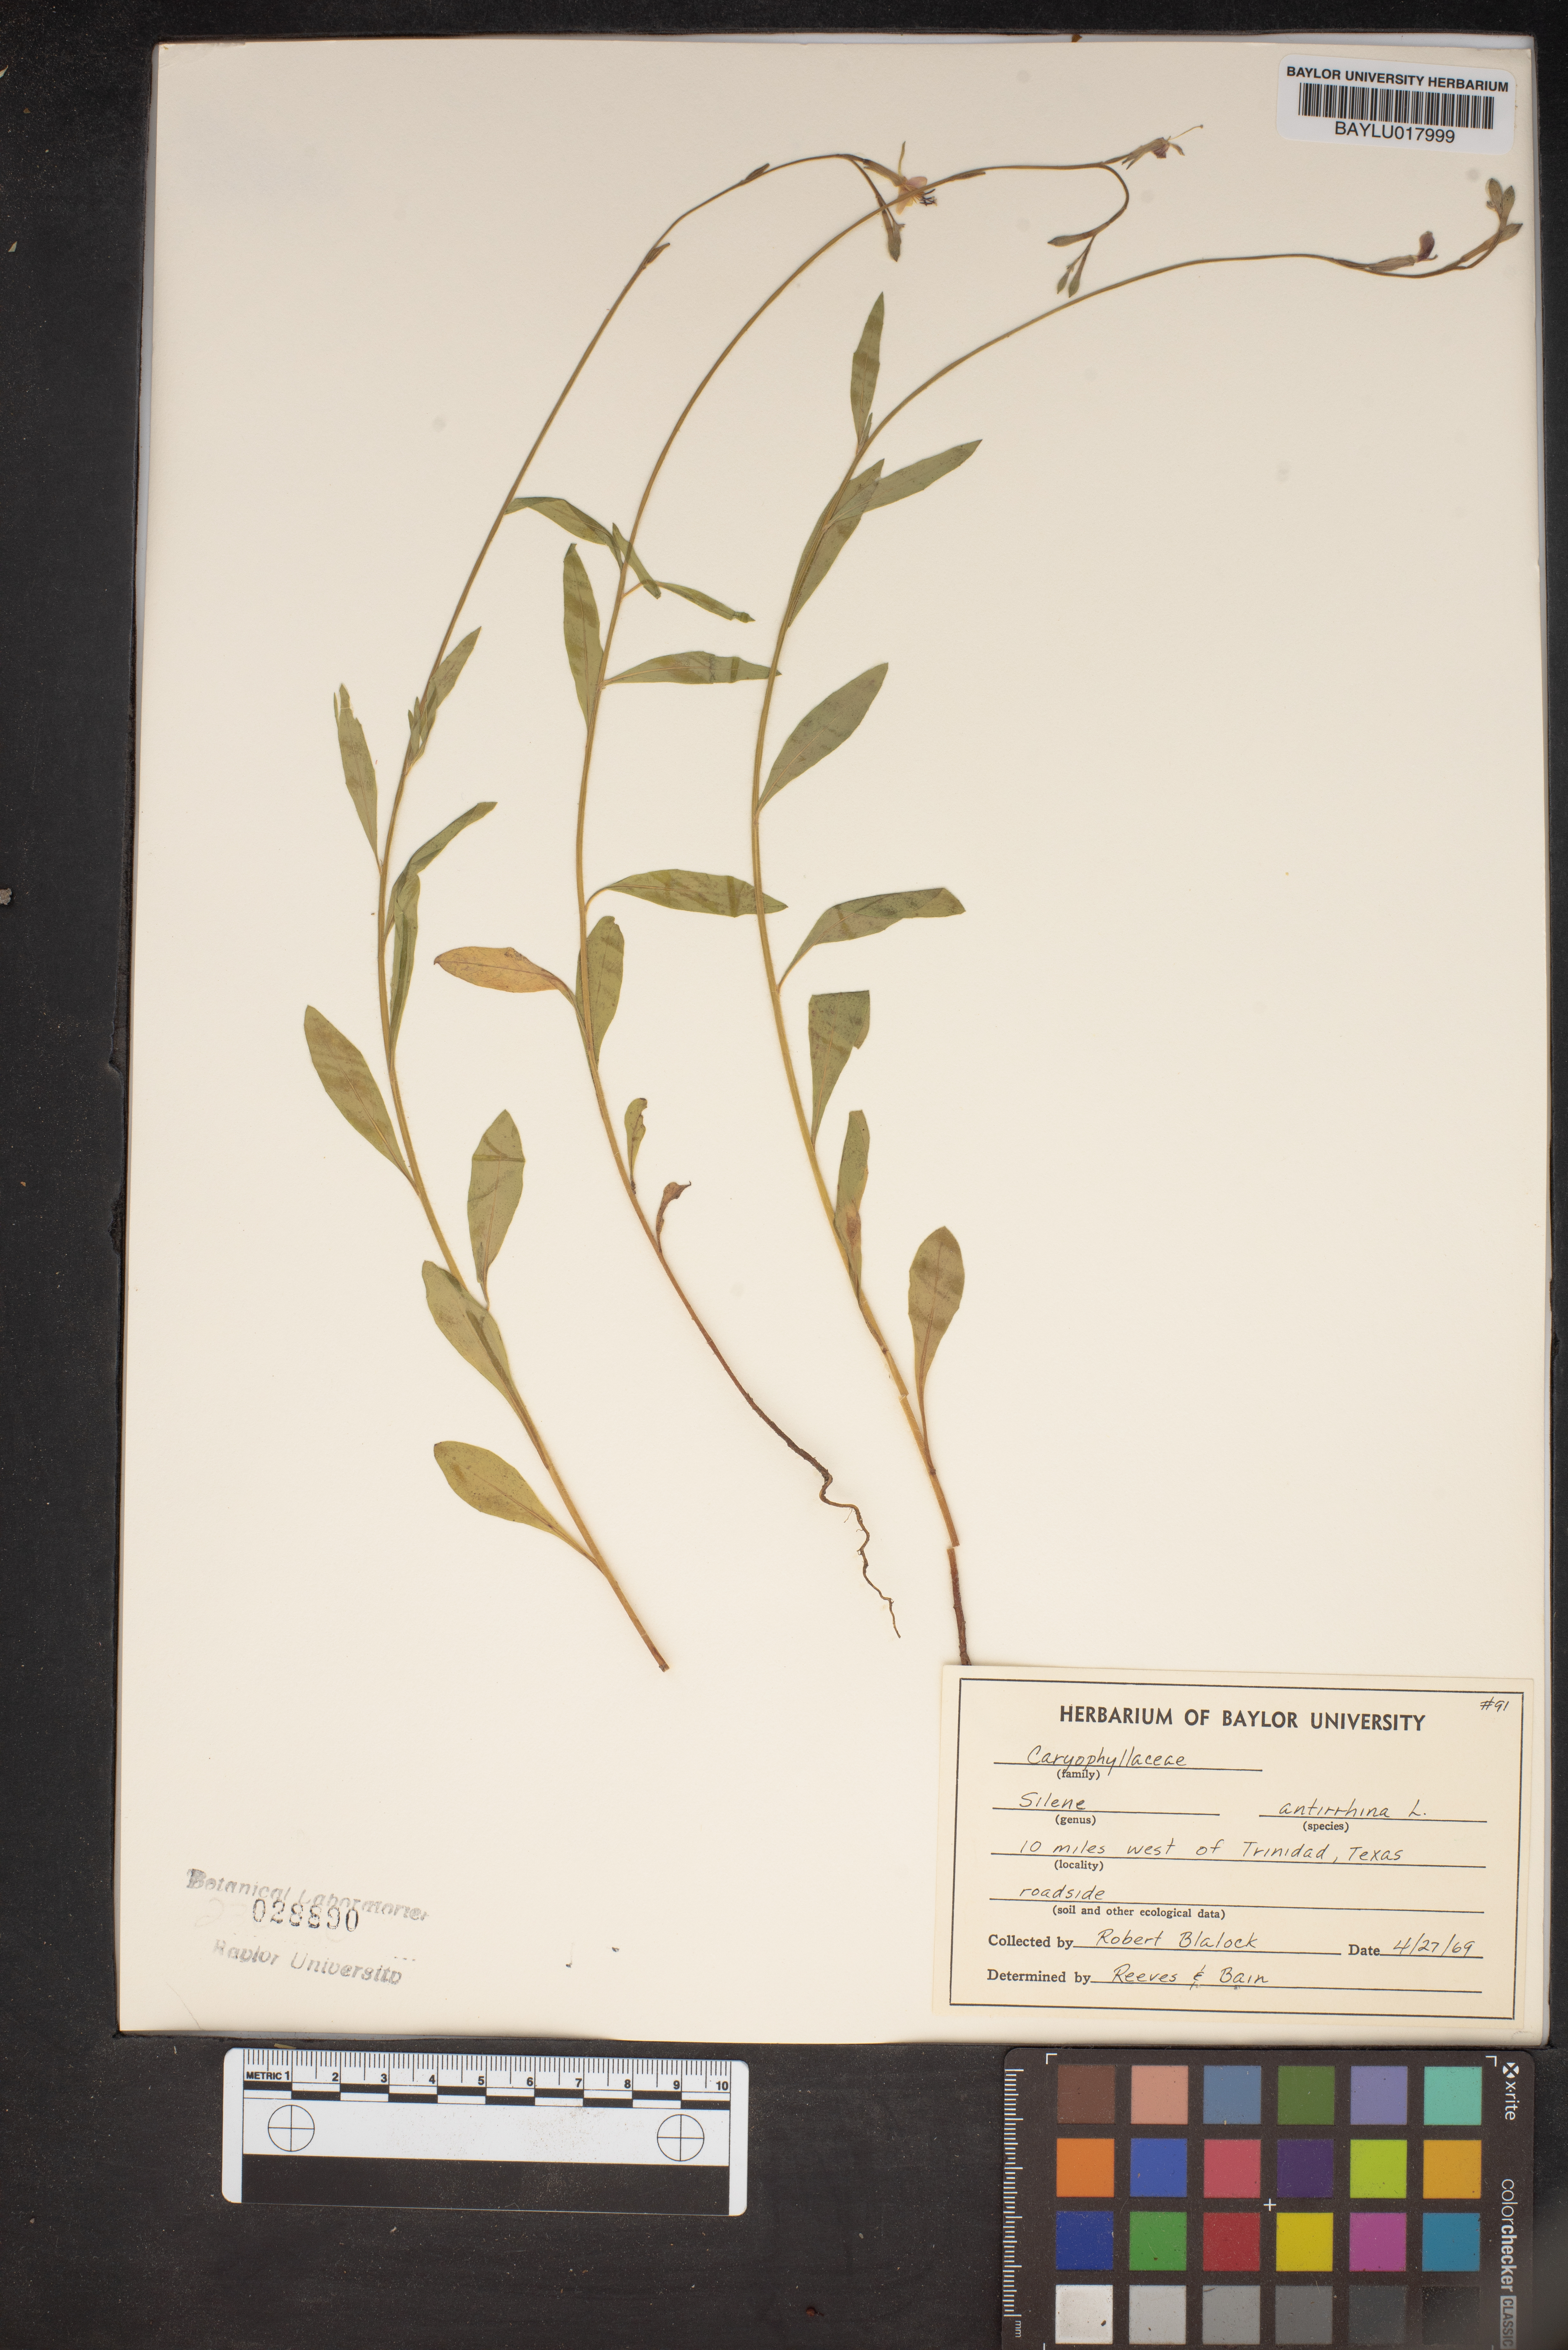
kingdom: Plantae
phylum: Tracheophyta
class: Magnoliopsida
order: Caryophyllales
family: Caryophyllaceae
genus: Silene
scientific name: Silene antirrhina
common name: Sleepy catchfly
